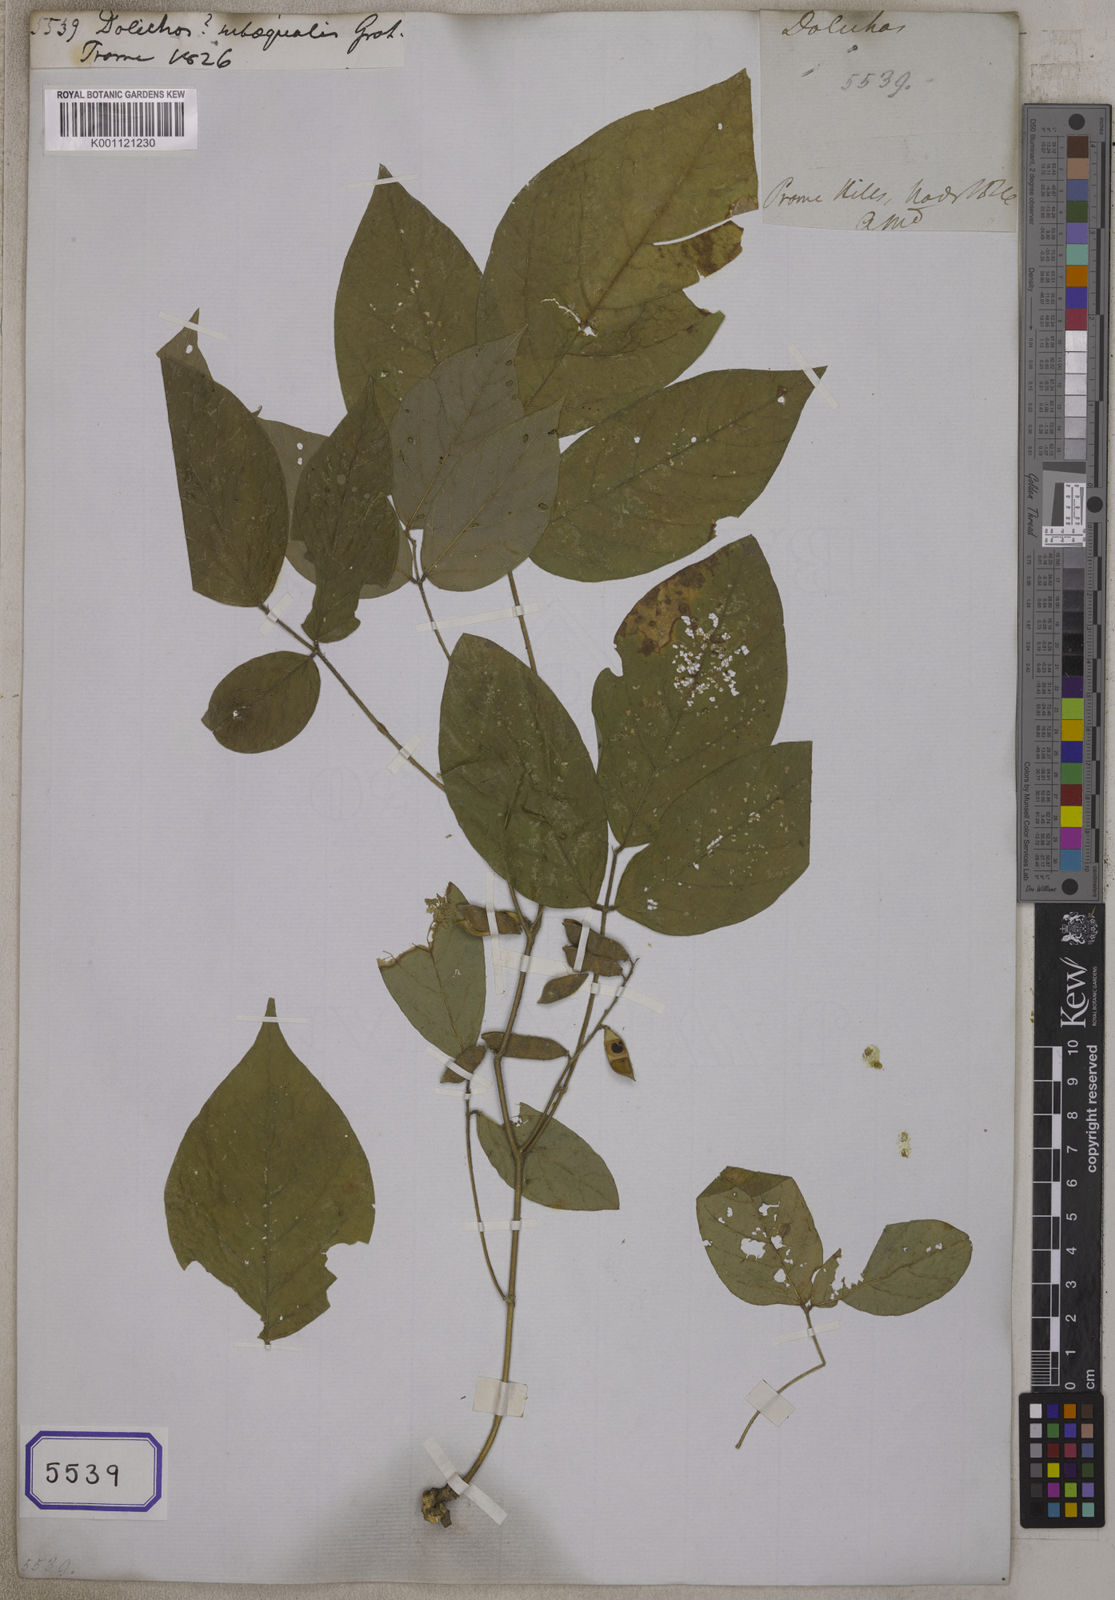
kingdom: Plantae
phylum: Tracheophyta
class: Magnoliopsida
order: Fabales
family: Fabaceae
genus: Psophocarpus
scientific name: Psophocarpus scandens
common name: Tropical african winged-bean
